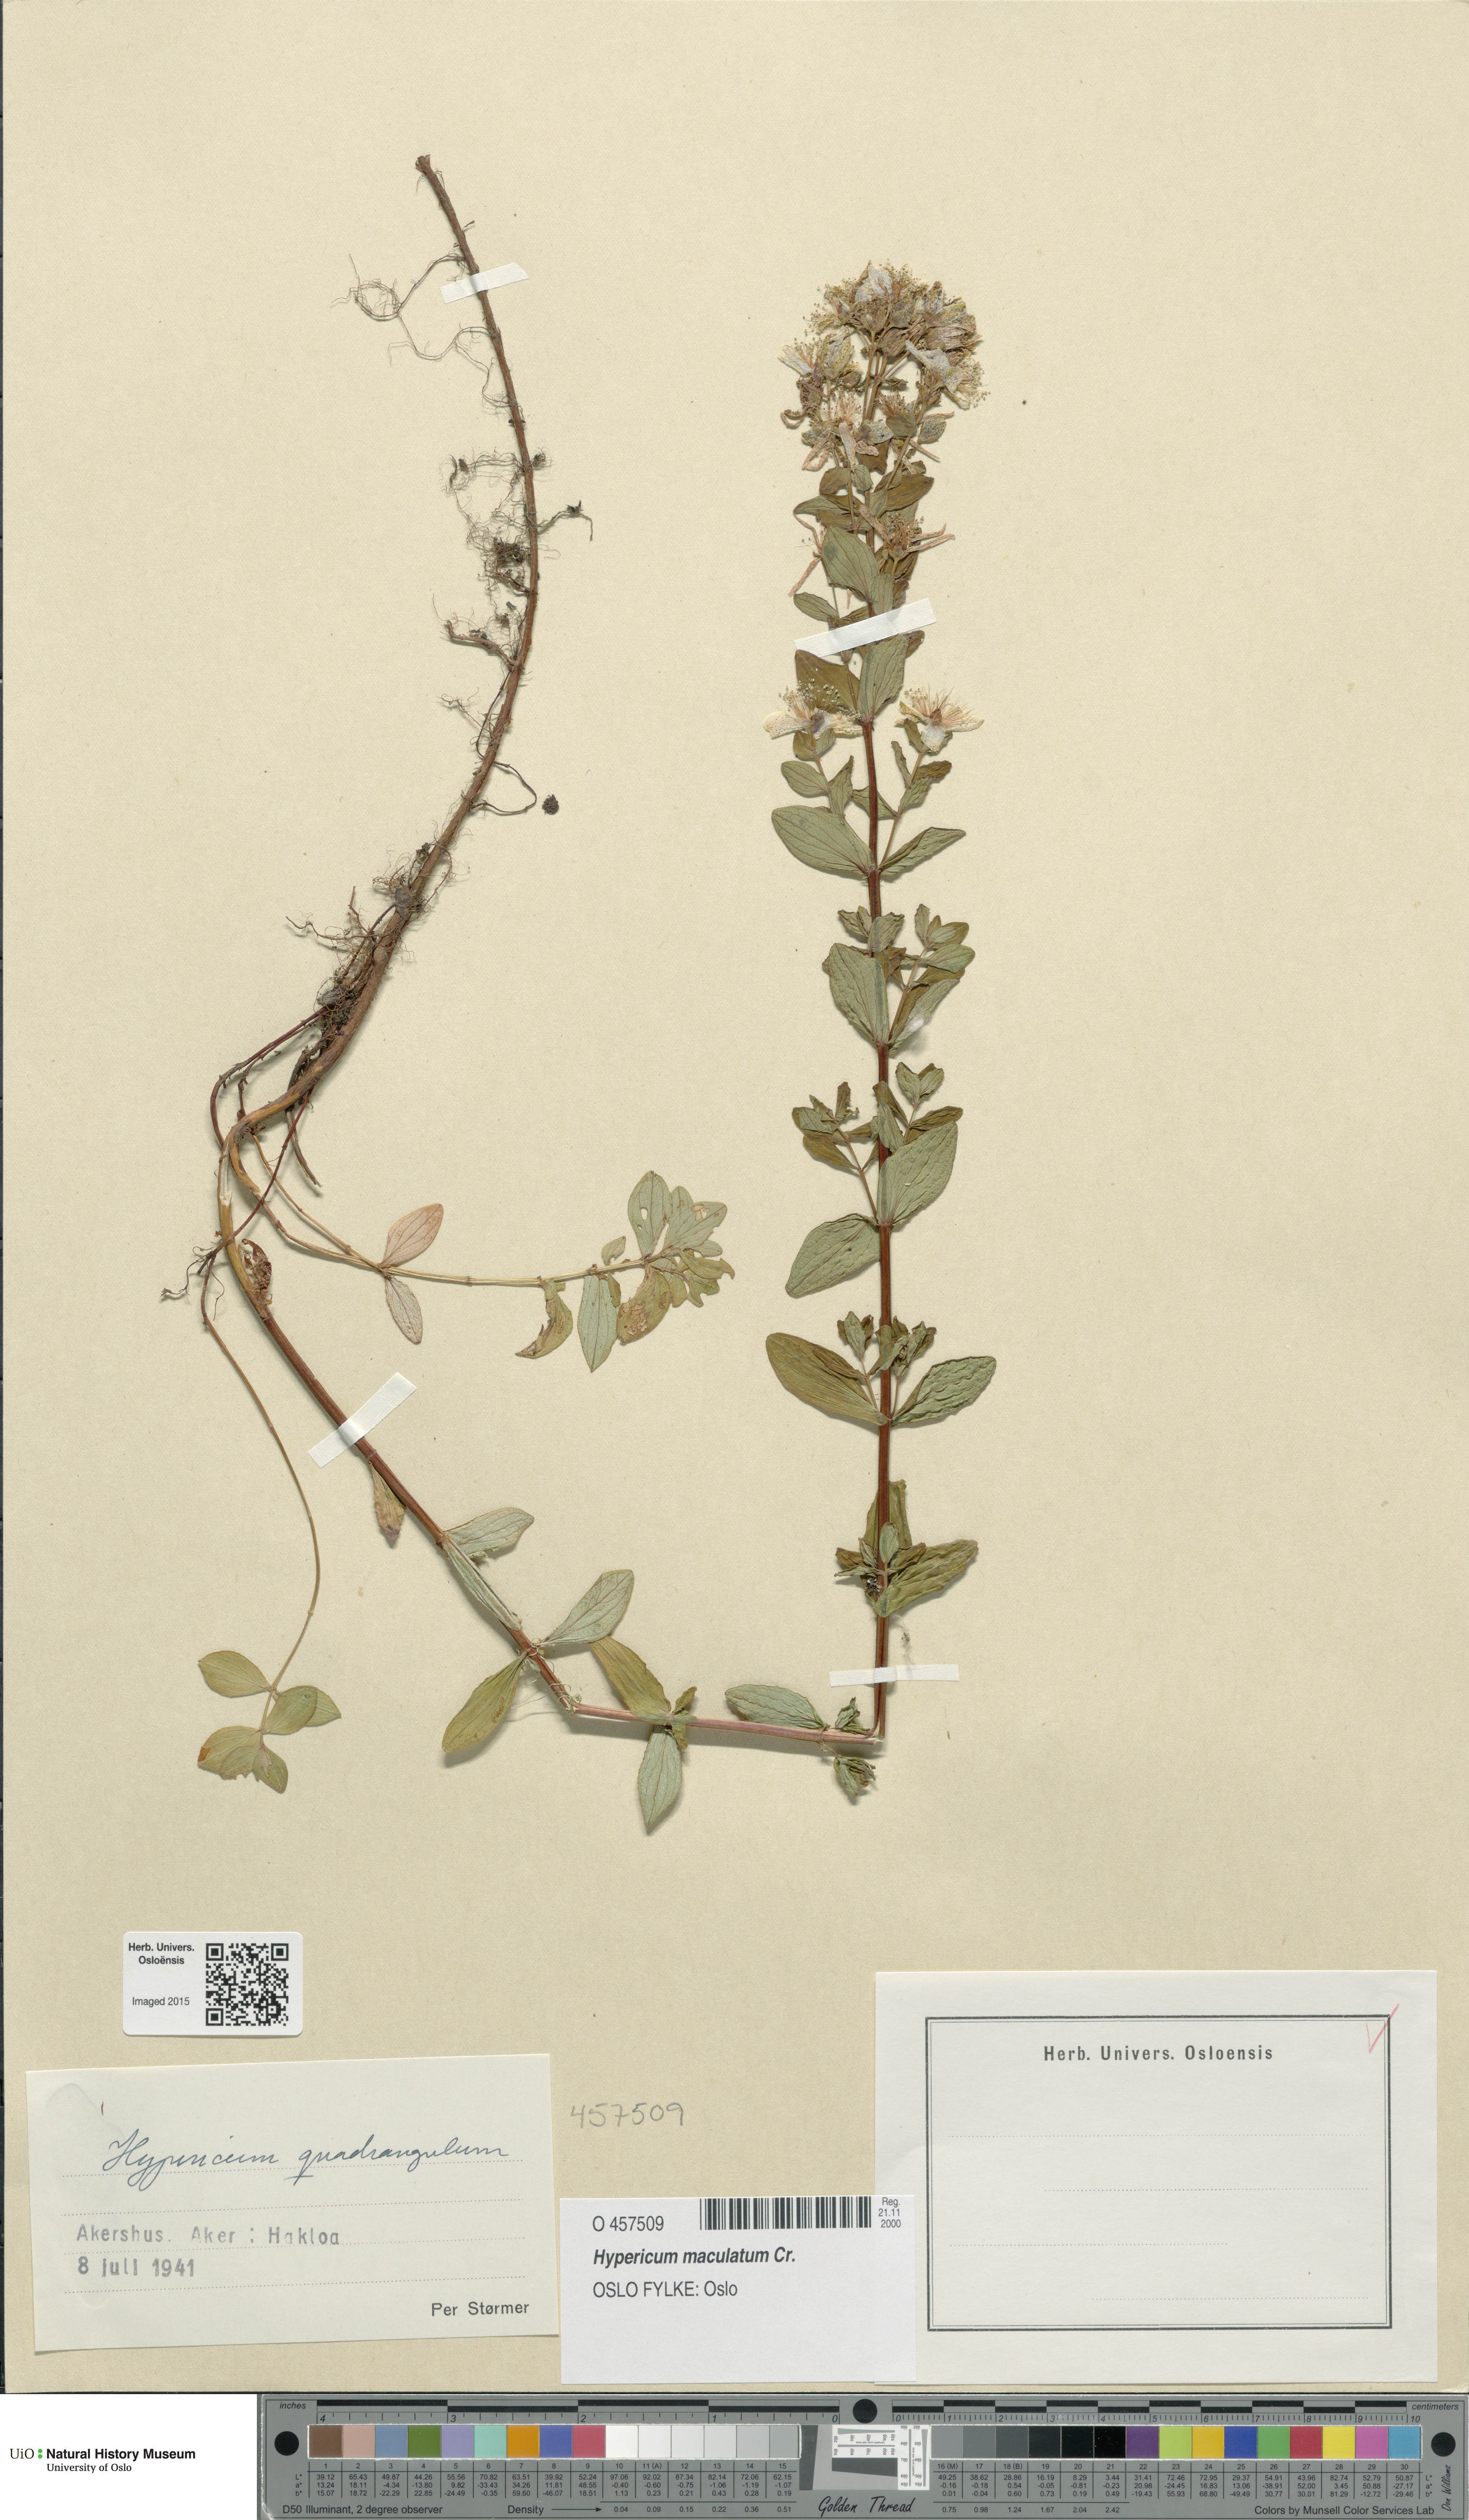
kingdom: Plantae
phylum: Tracheophyta
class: Magnoliopsida
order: Malpighiales
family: Hypericaceae
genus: Hypericum
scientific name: Hypericum maculatum
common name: Imperforate st. john's-wort
